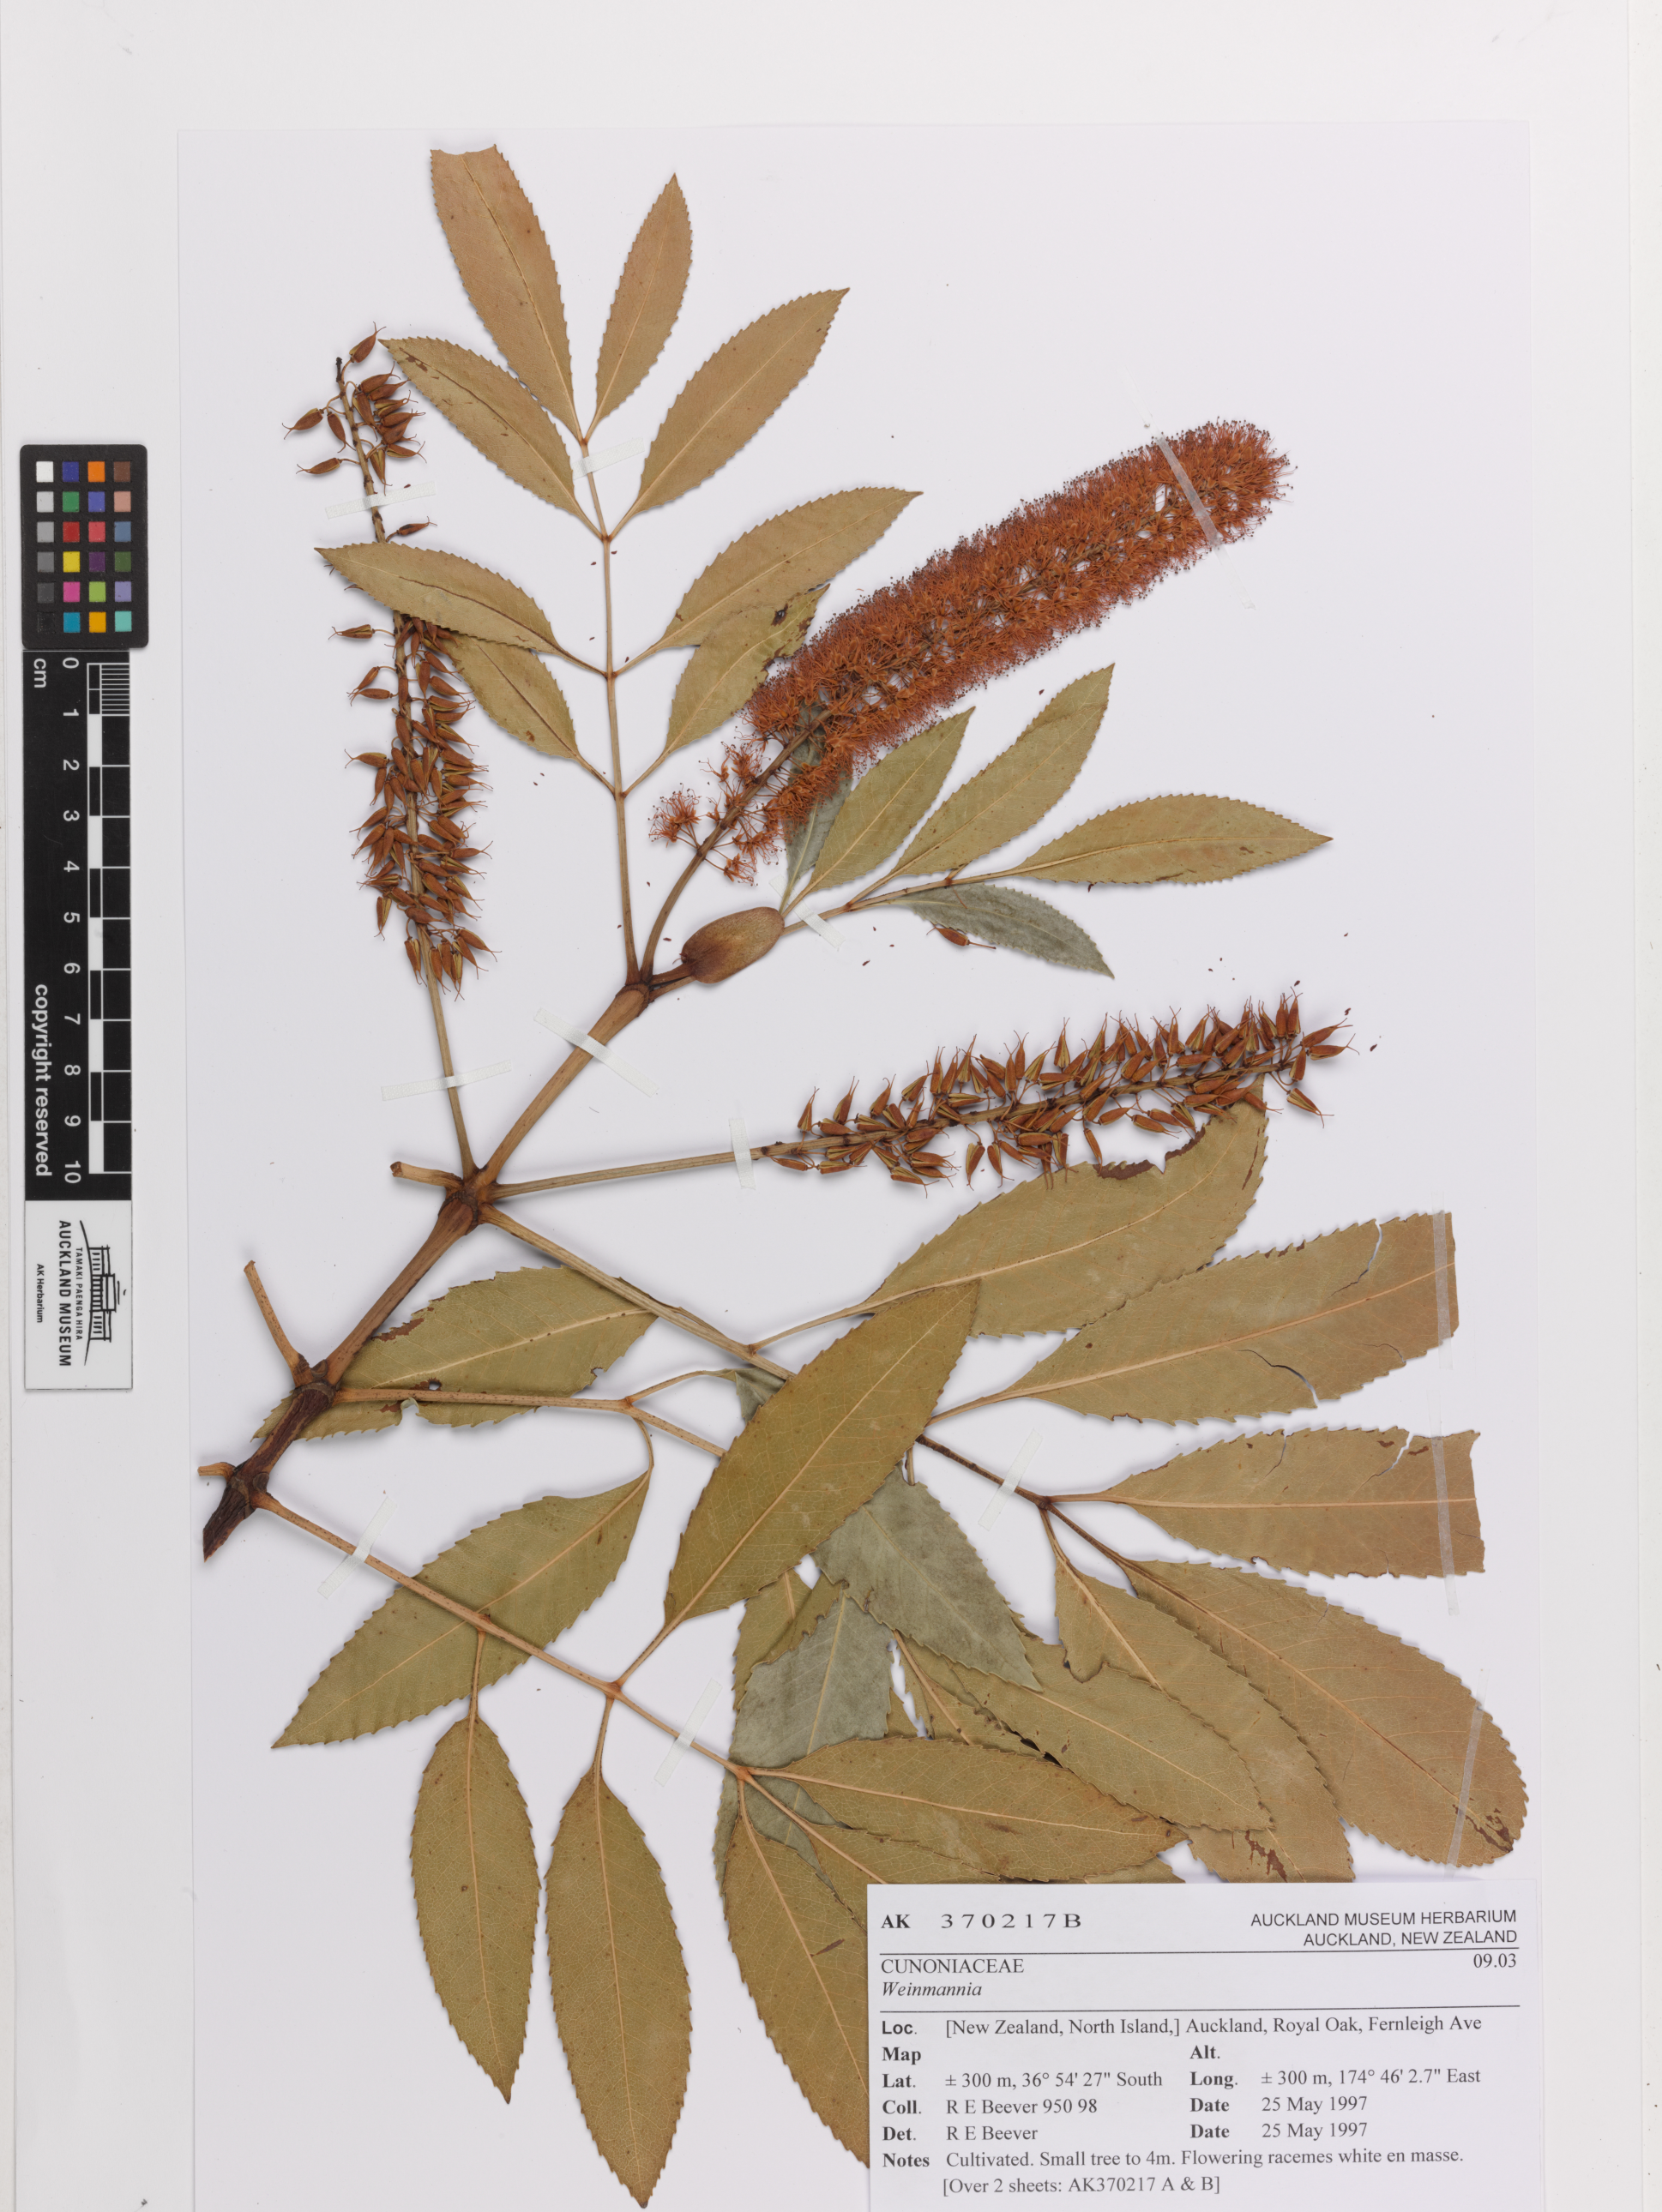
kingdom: Plantae
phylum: Tracheophyta
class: Magnoliopsida
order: Oxalidales
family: Cunoniaceae
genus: Weinmannia
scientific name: Weinmannia
